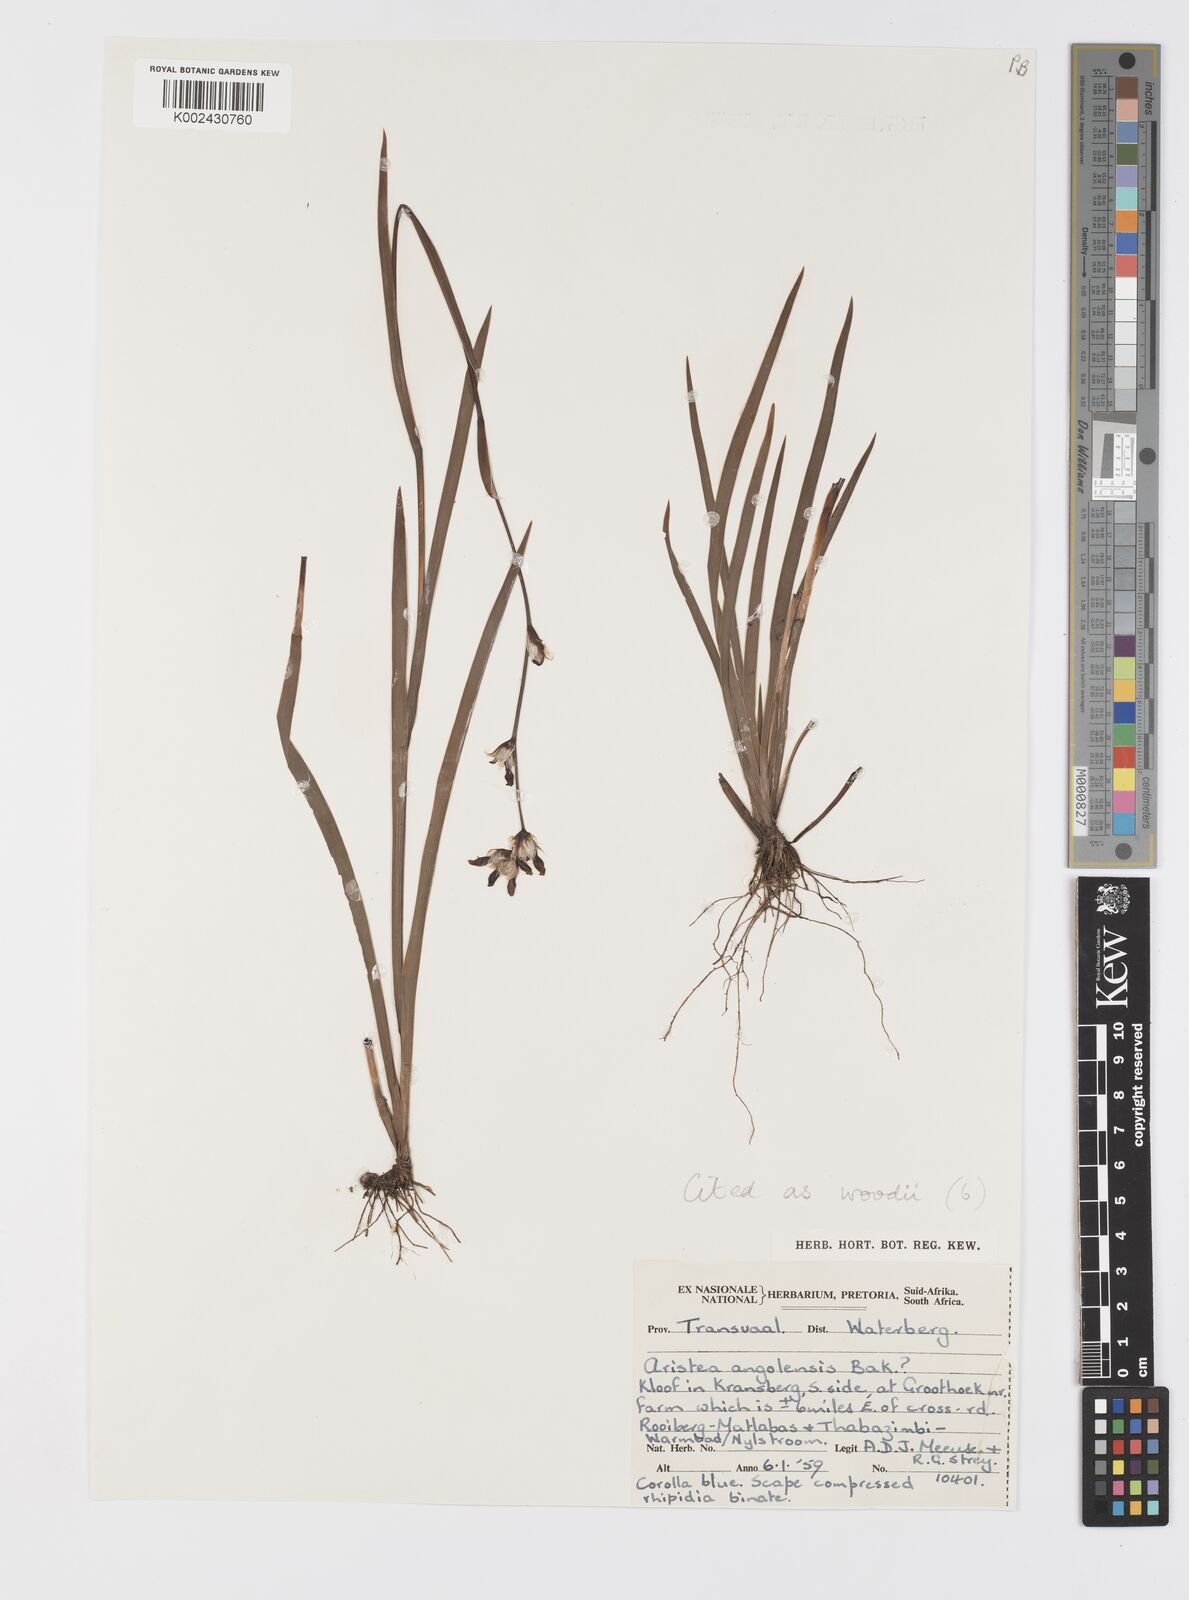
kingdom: Plantae
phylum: Tracheophyta
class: Liliopsida
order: Asparagales
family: Iridaceae
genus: Aristea
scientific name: Aristea torulosa
